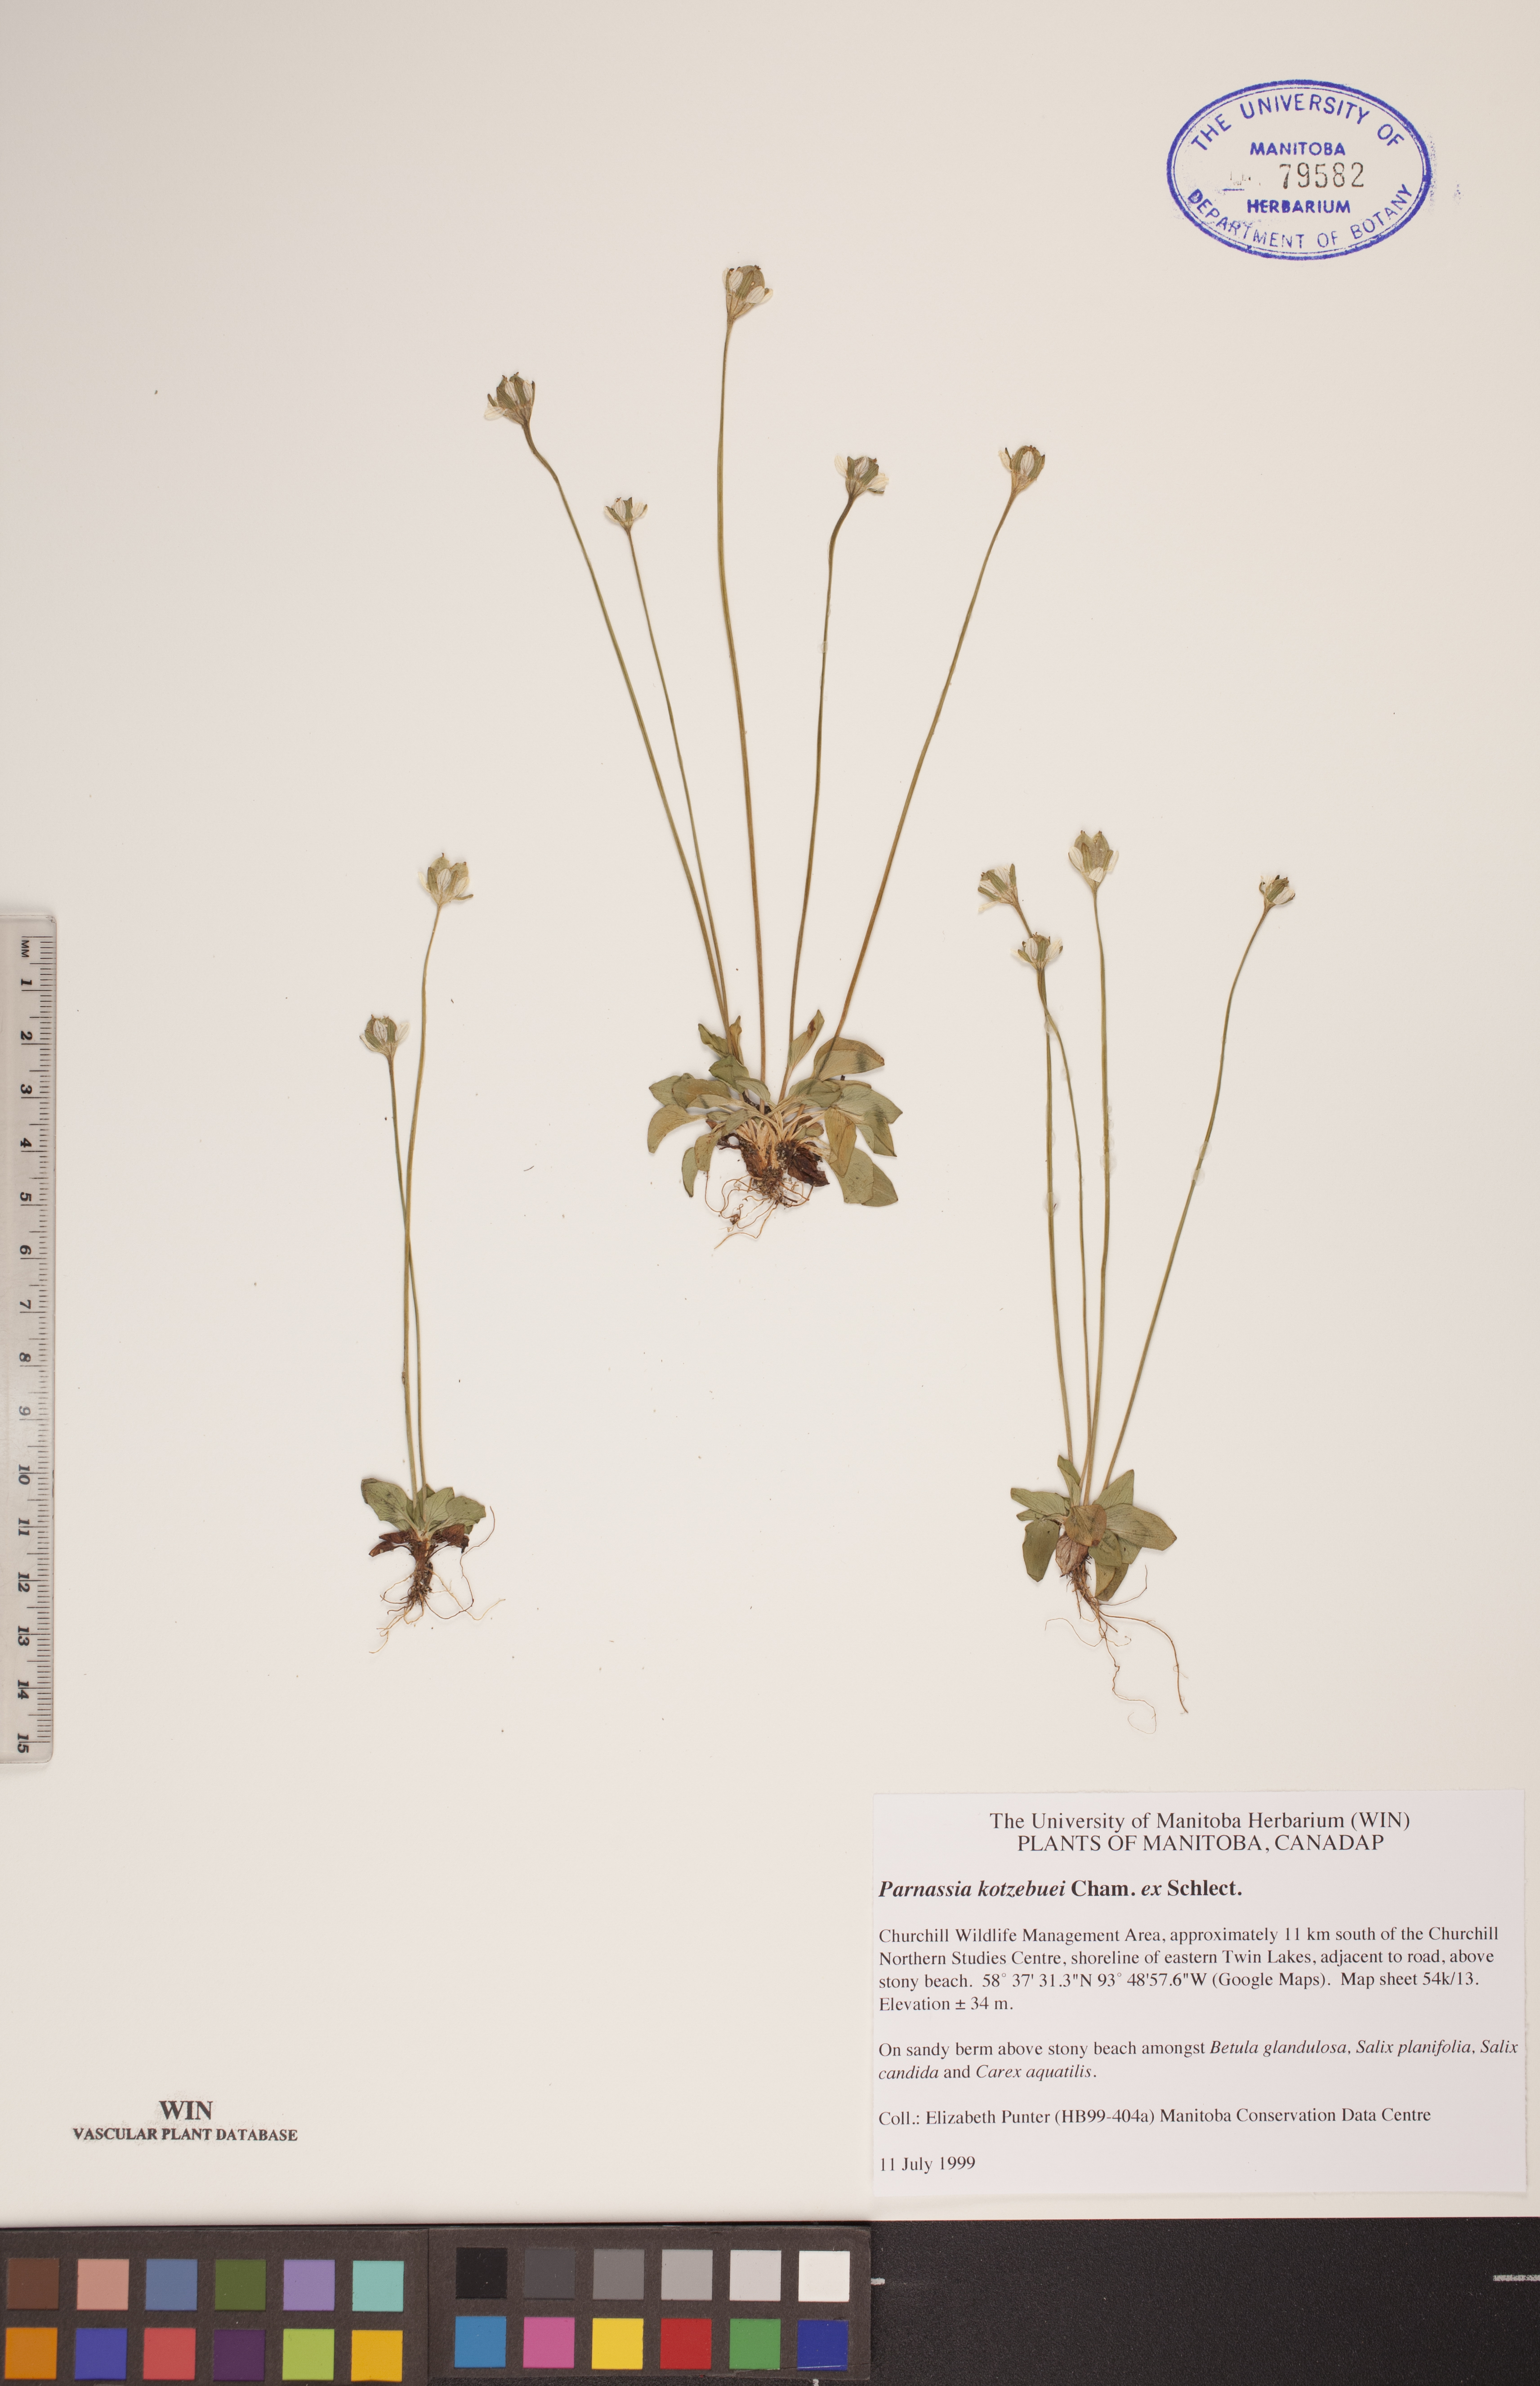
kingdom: Plantae
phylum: Tracheophyta
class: Magnoliopsida
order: Celastrales
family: Parnassiaceae
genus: Parnassia
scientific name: Parnassia kotzebuei
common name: Kotzebue's grass-of-parnassus
